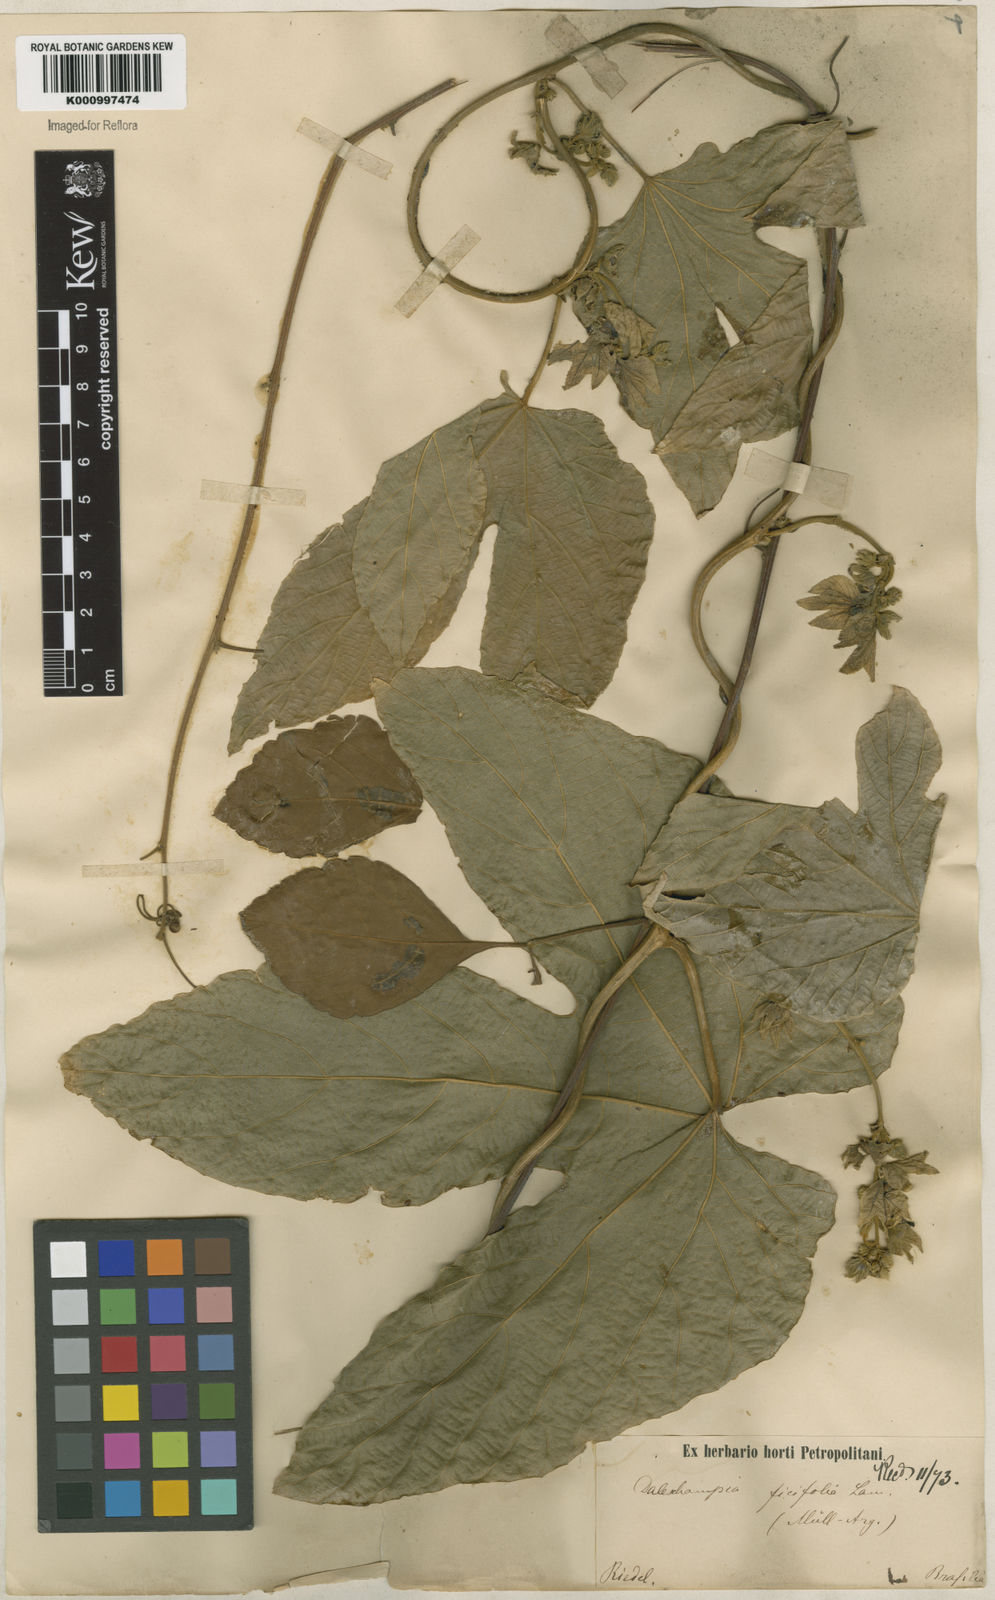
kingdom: Plantae
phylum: Tracheophyta
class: Magnoliopsida
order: Malpighiales
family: Euphorbiaceae
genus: Dalechampia
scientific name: Dalechampia ficifolia
